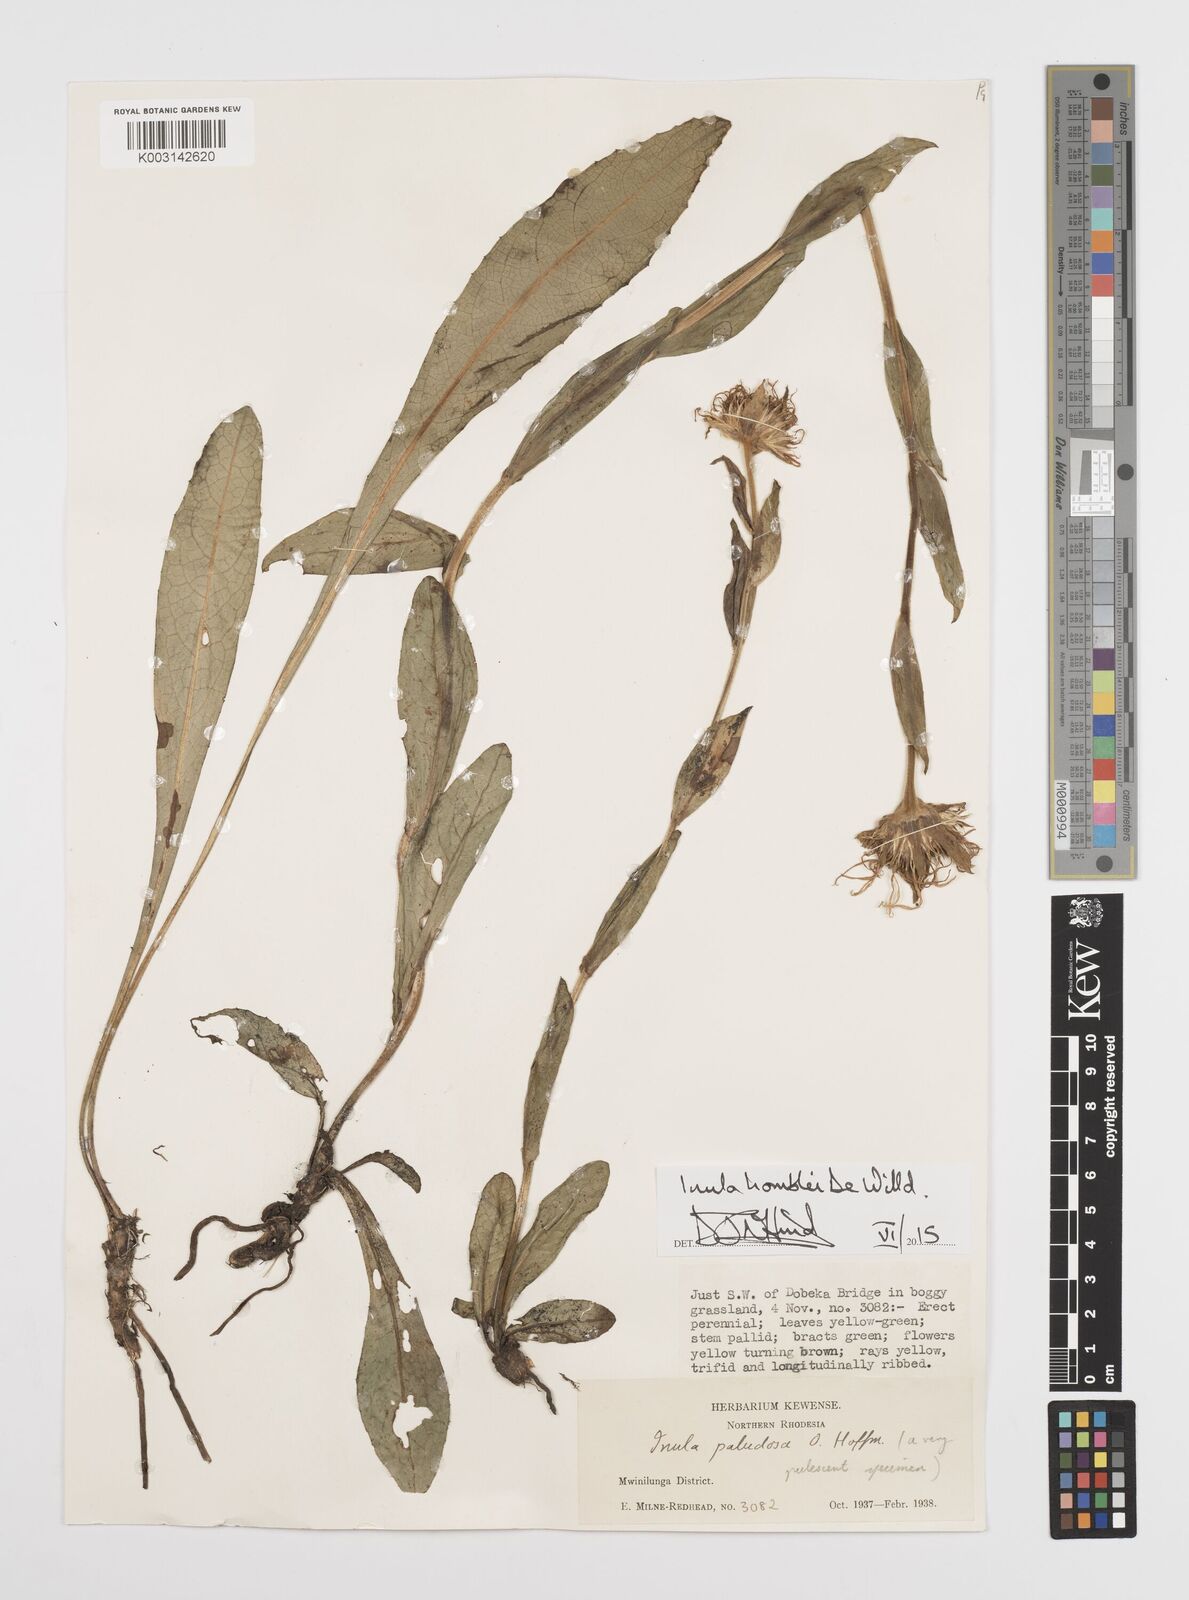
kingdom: Plantae
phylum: Tracheophyta
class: Magnoliopsida
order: Asterales
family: Asteraceae
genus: Inula
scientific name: Inula paludosa
